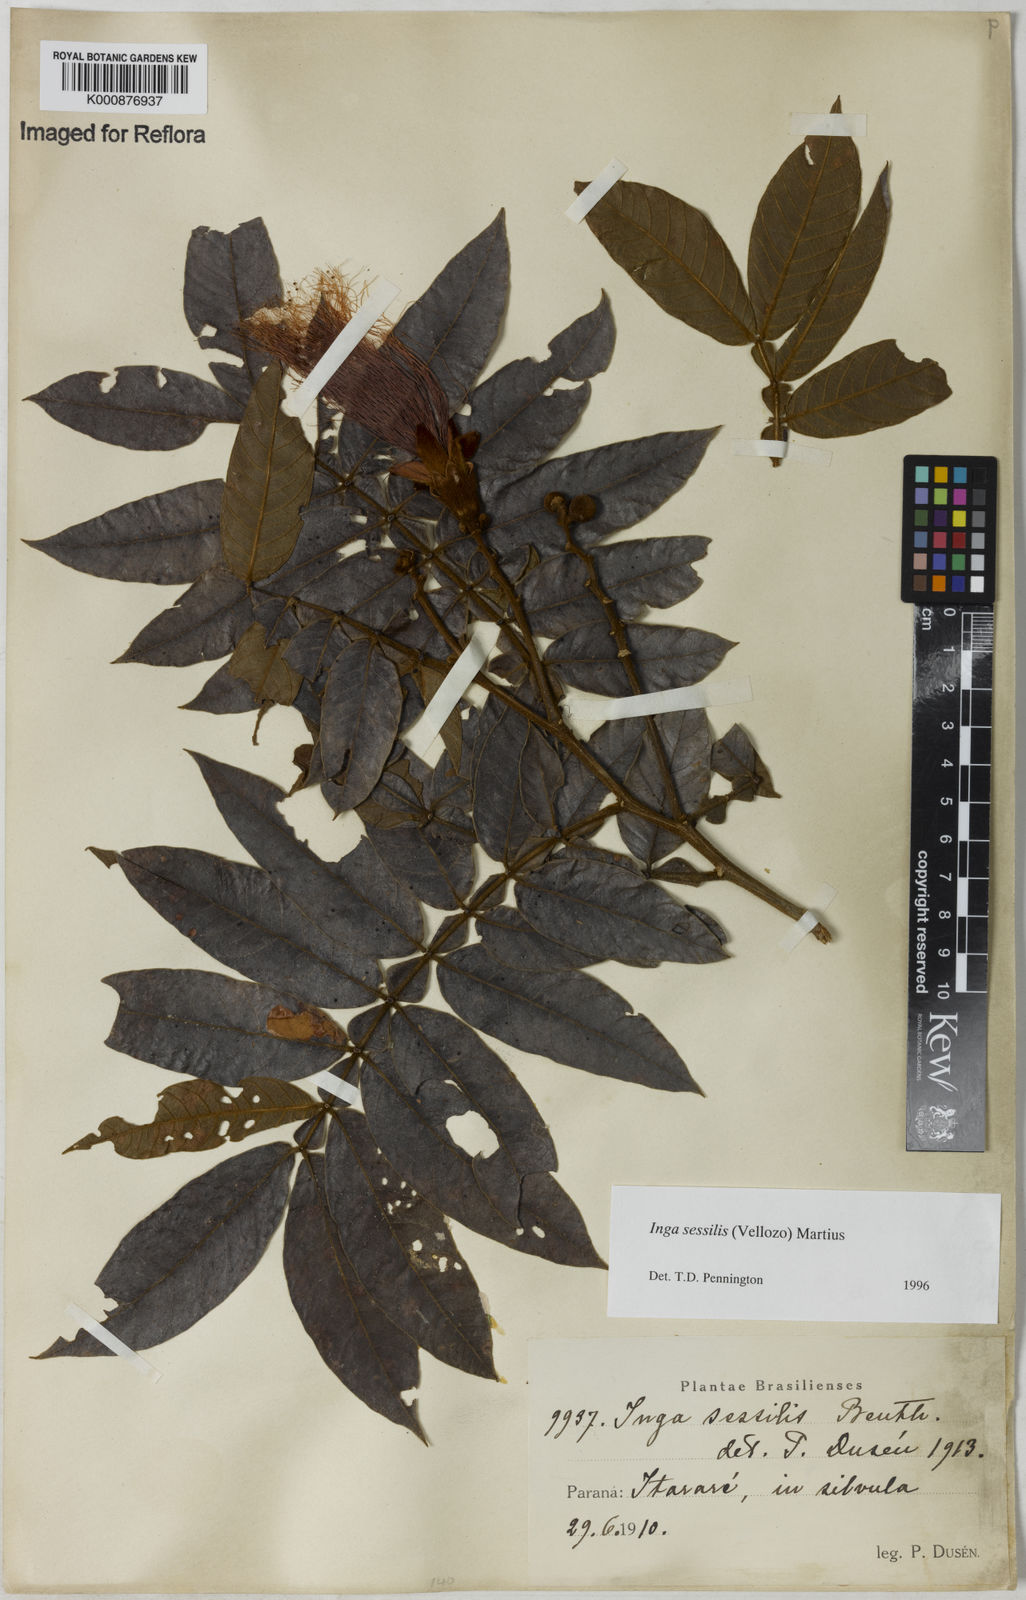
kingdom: Plantae
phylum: Tracheophyta
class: Magnoliopsida
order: Fabales
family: Fabaceae
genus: Inga
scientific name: Inga sessilis
